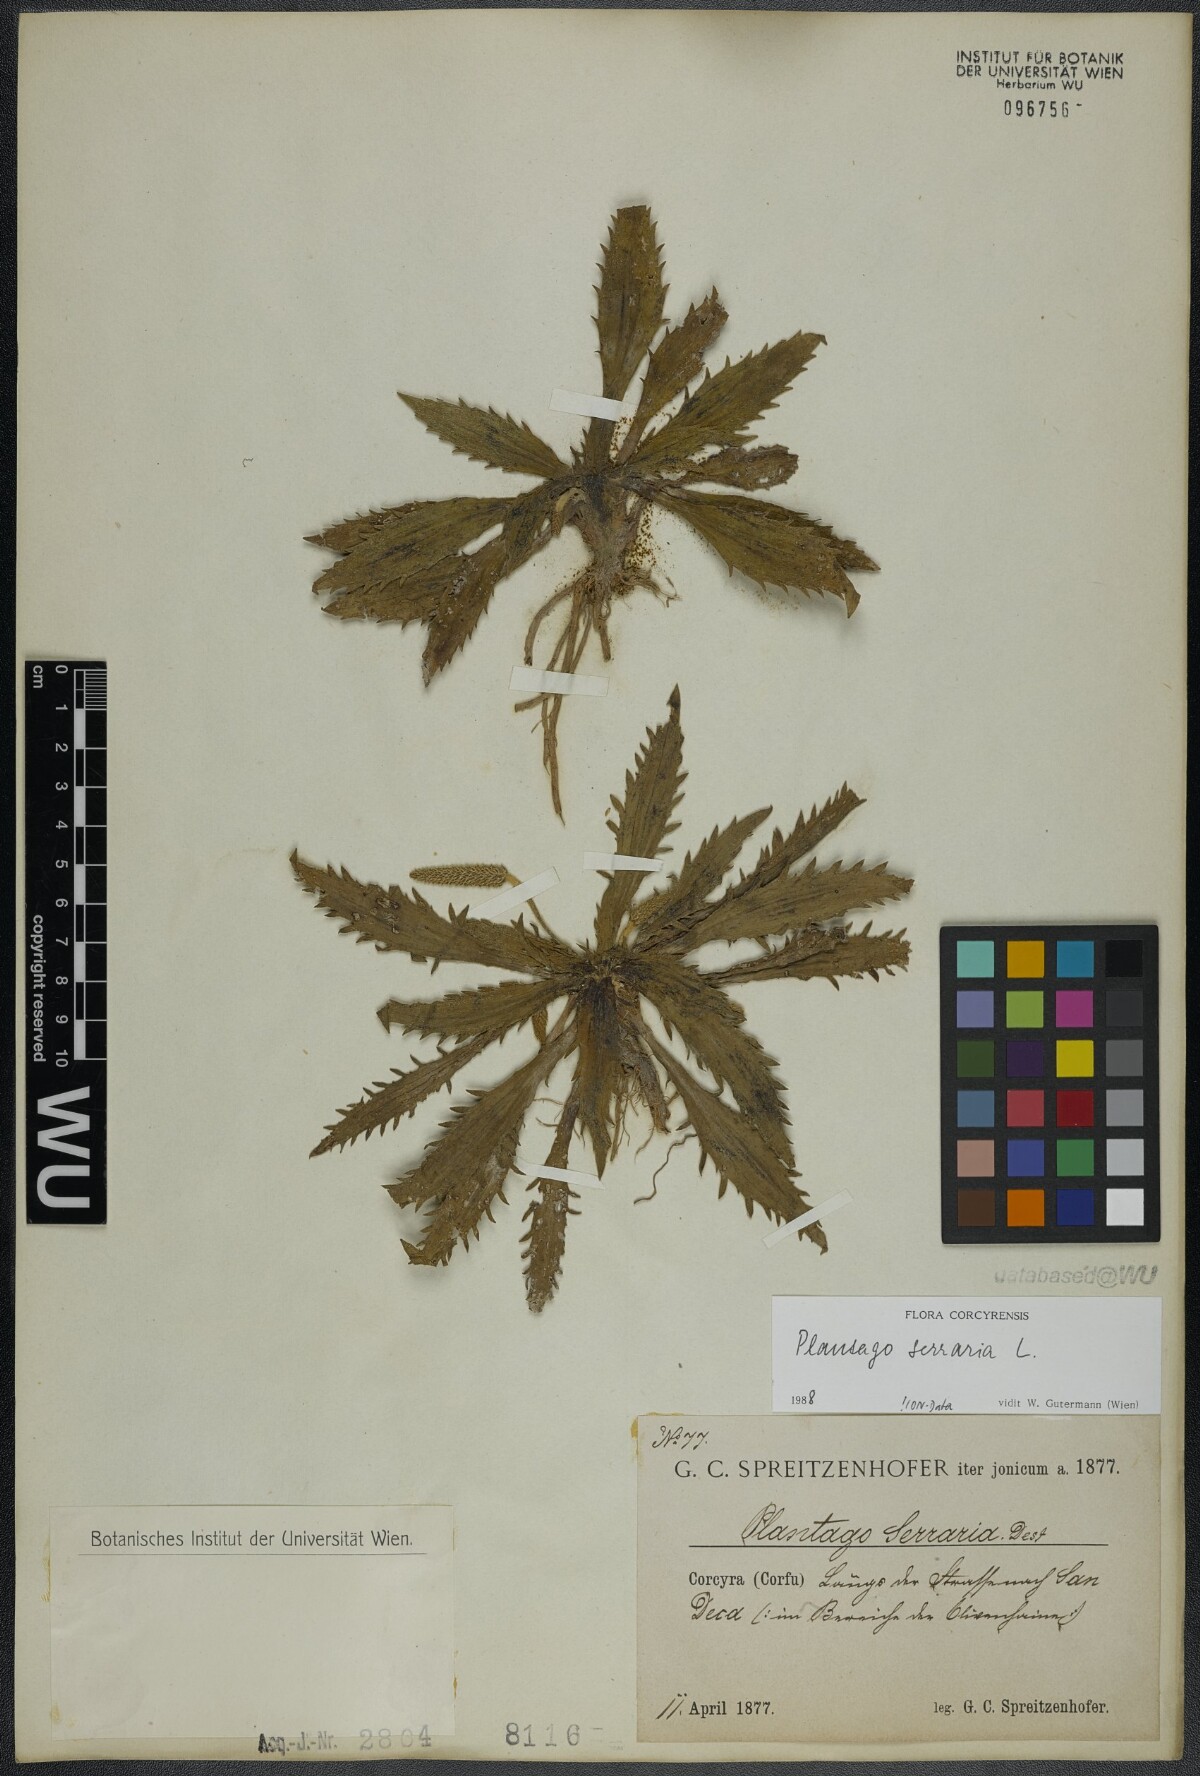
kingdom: Plantae
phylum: Tracheophyta
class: Magnoliopsida
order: Lamiales
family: Plantaginaceae
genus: Plantago
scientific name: Plantago serraria
